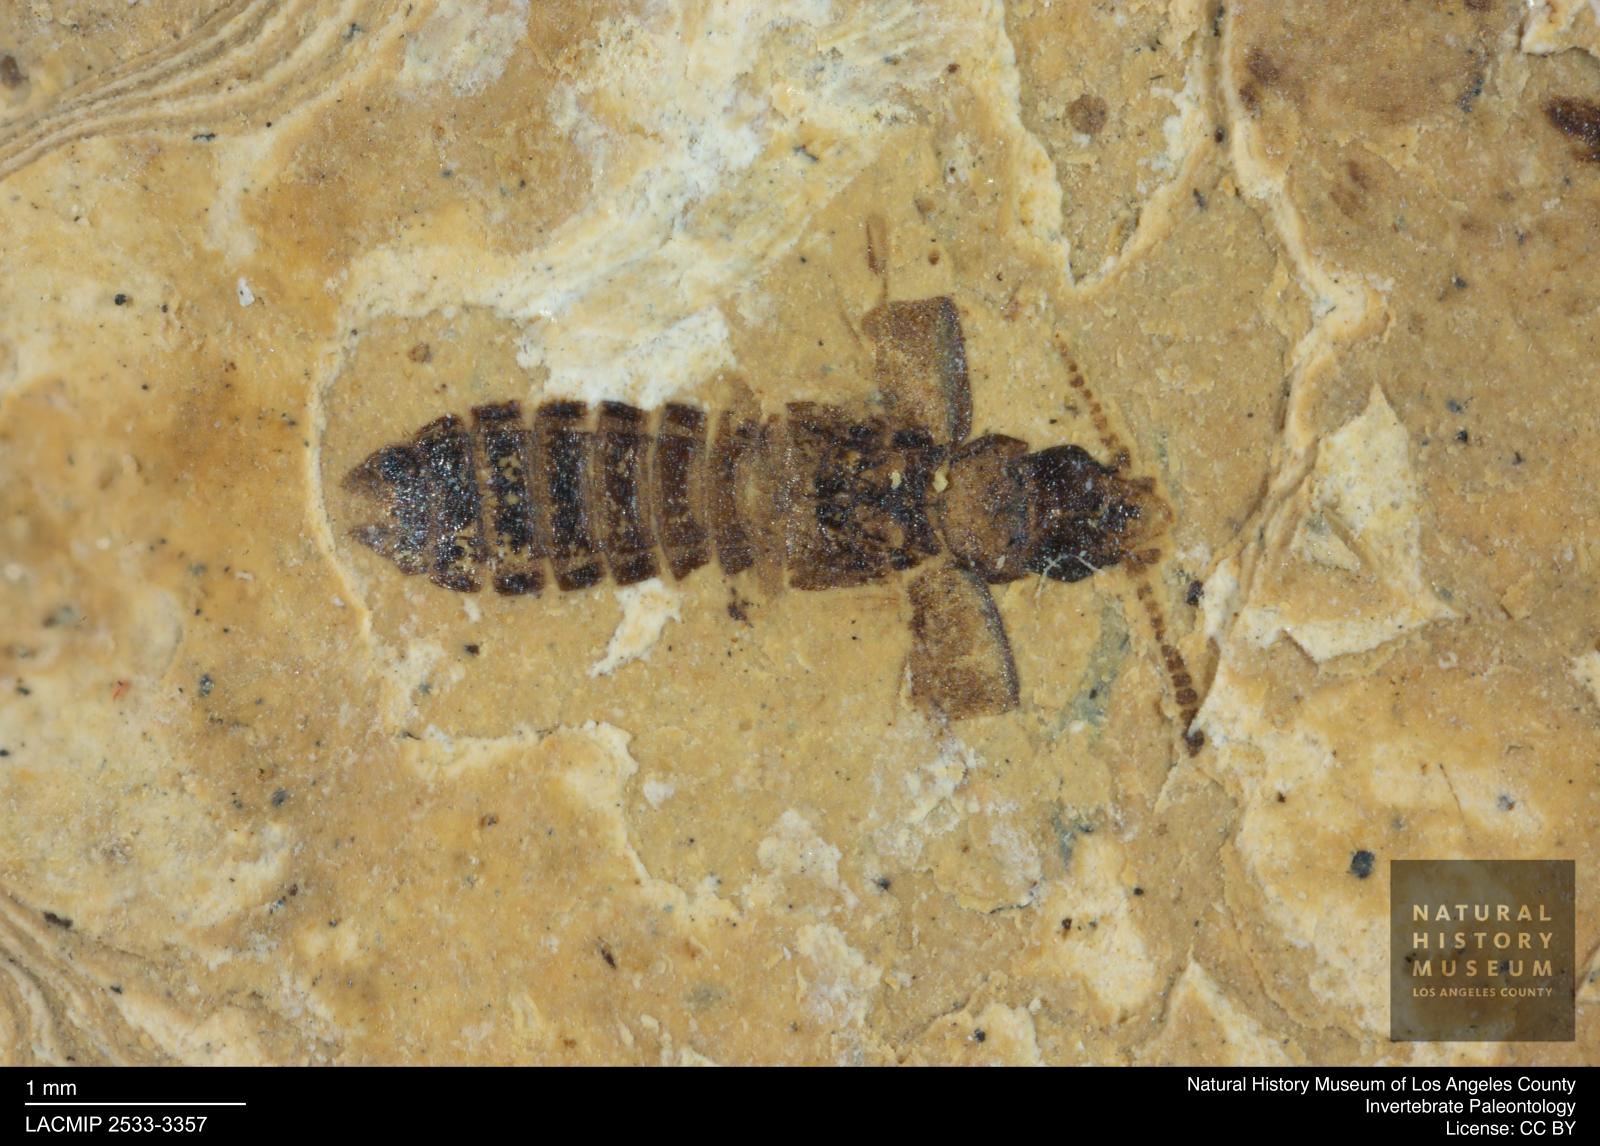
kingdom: Animalia
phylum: Arthropoda
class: Insecta
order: Coleoptera
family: Staphylinidae
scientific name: Staphylinidae
